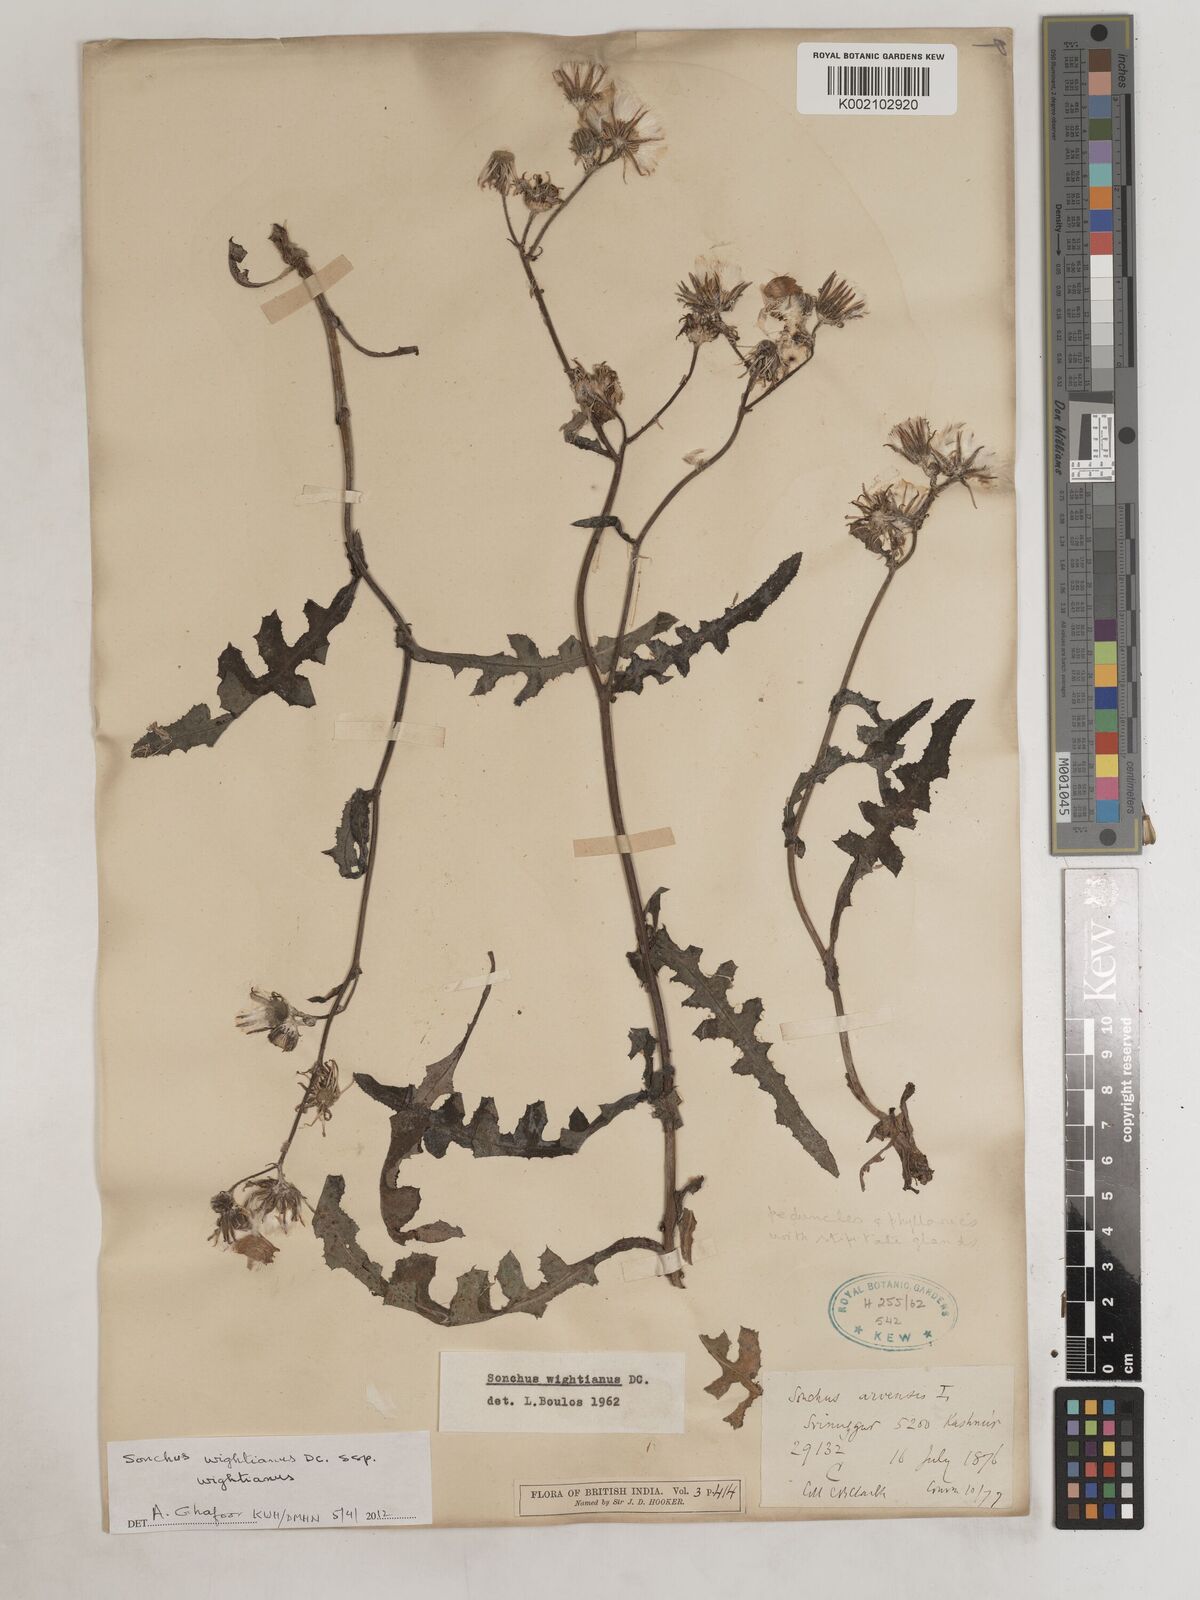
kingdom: Plantae
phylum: Tracheophyta
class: Magnoliopsida
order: Asterales
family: Asteraceae
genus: Sonchus
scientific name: Sonchus arvensis
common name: Perennial sow-thistle
